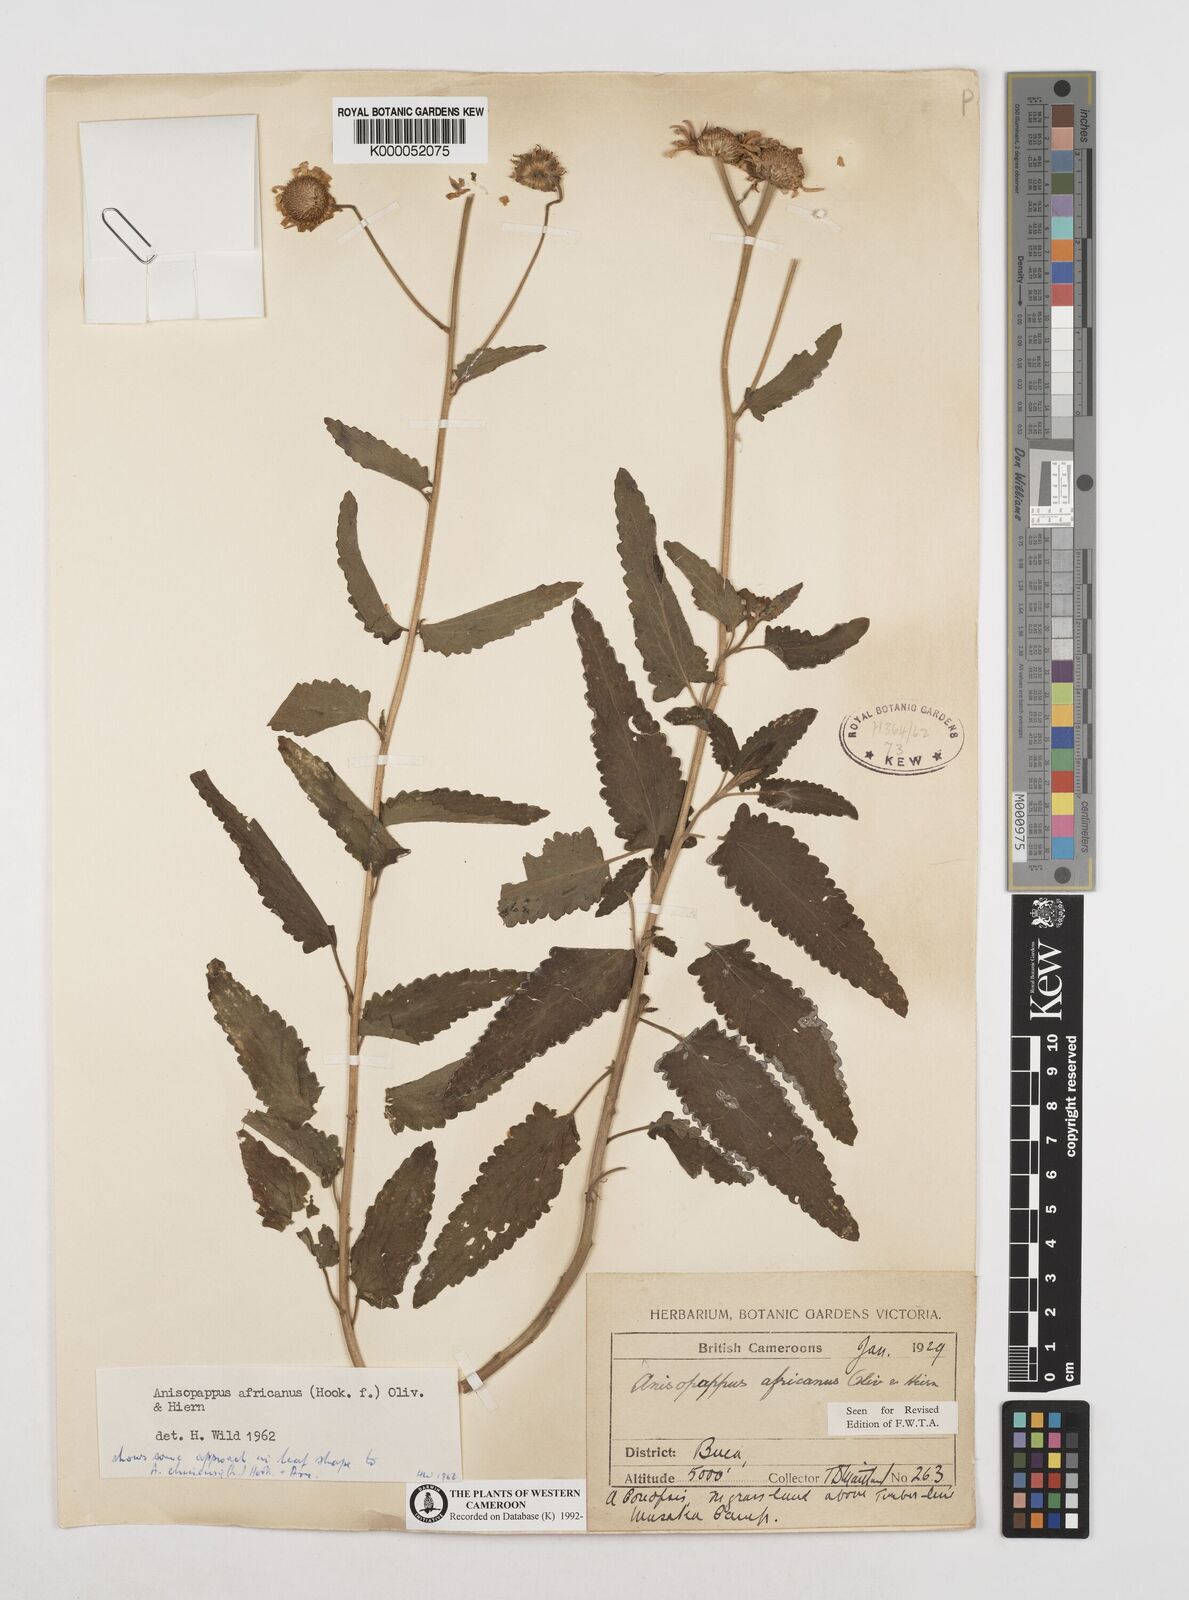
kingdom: Plantae
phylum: Tracheophyta
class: Magnoliopsida
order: Asterales
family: Asteraceae
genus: Anisopappus
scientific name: Anisopappus africanus
